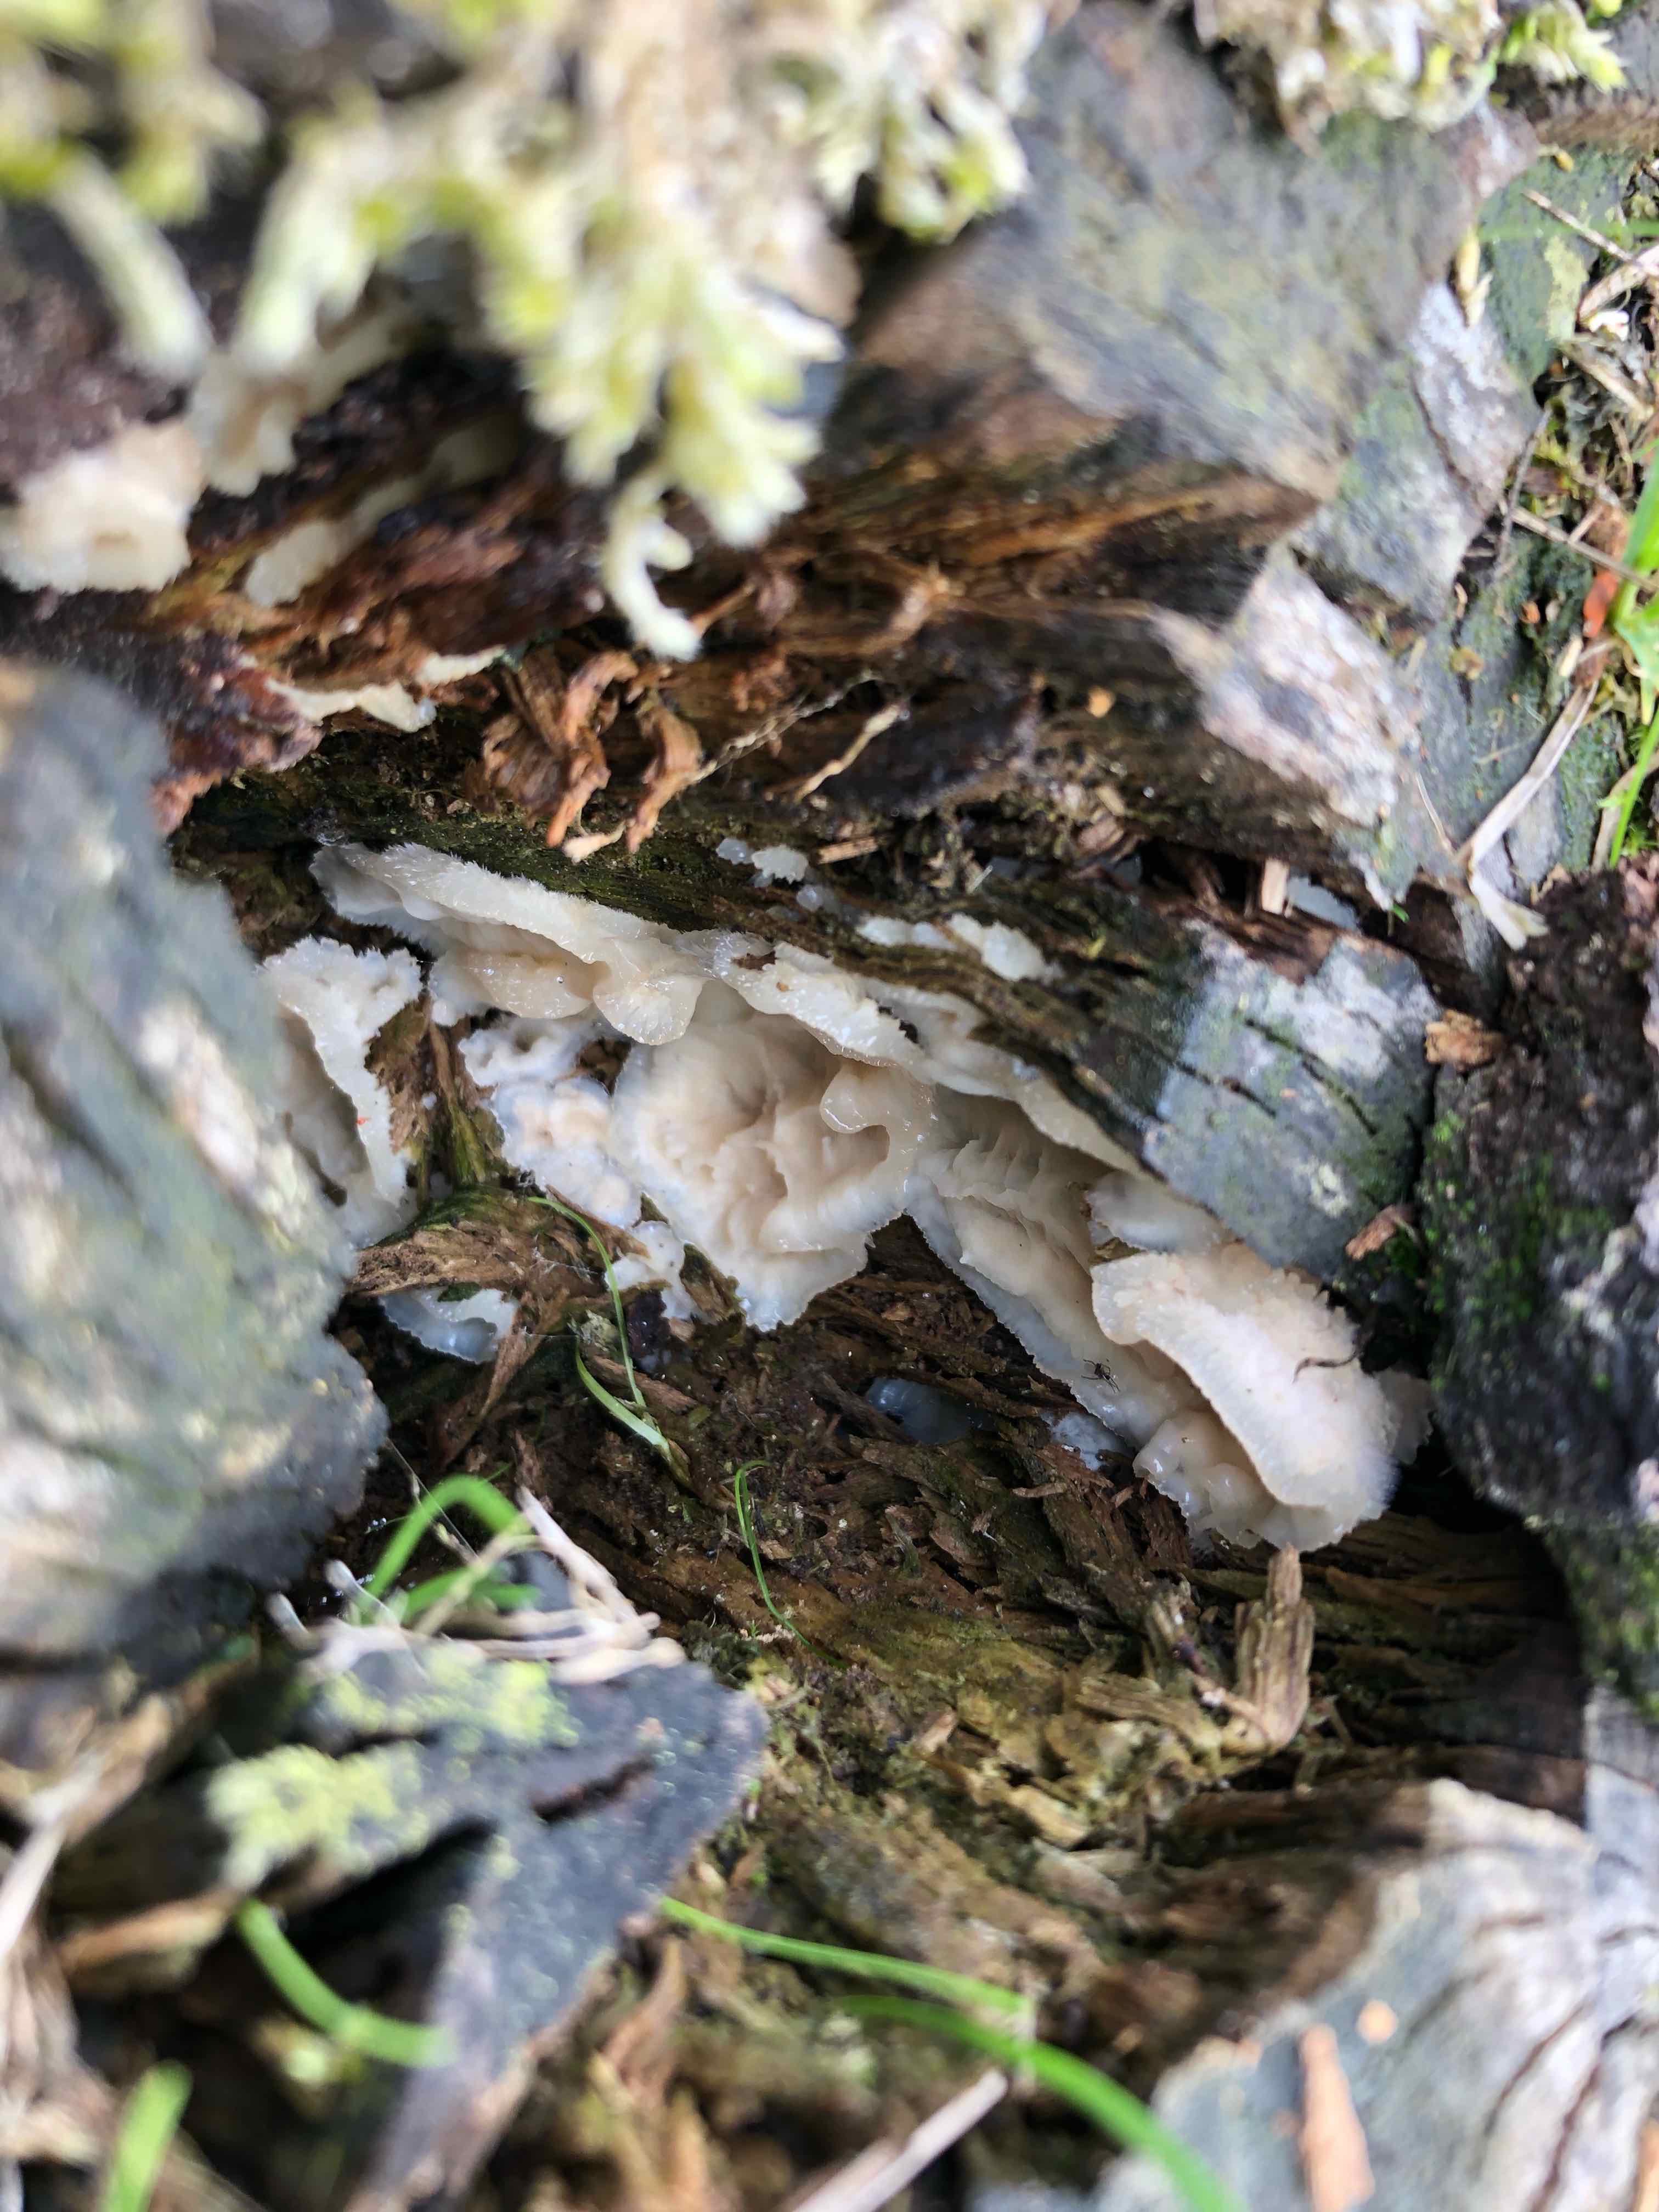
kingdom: Fungi
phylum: Basidiomycota
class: Agaricomycetes
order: Polyporales
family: Meruliaceae
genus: Phlebia
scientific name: Phlebia tremellosa
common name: bævrende åresvamp
